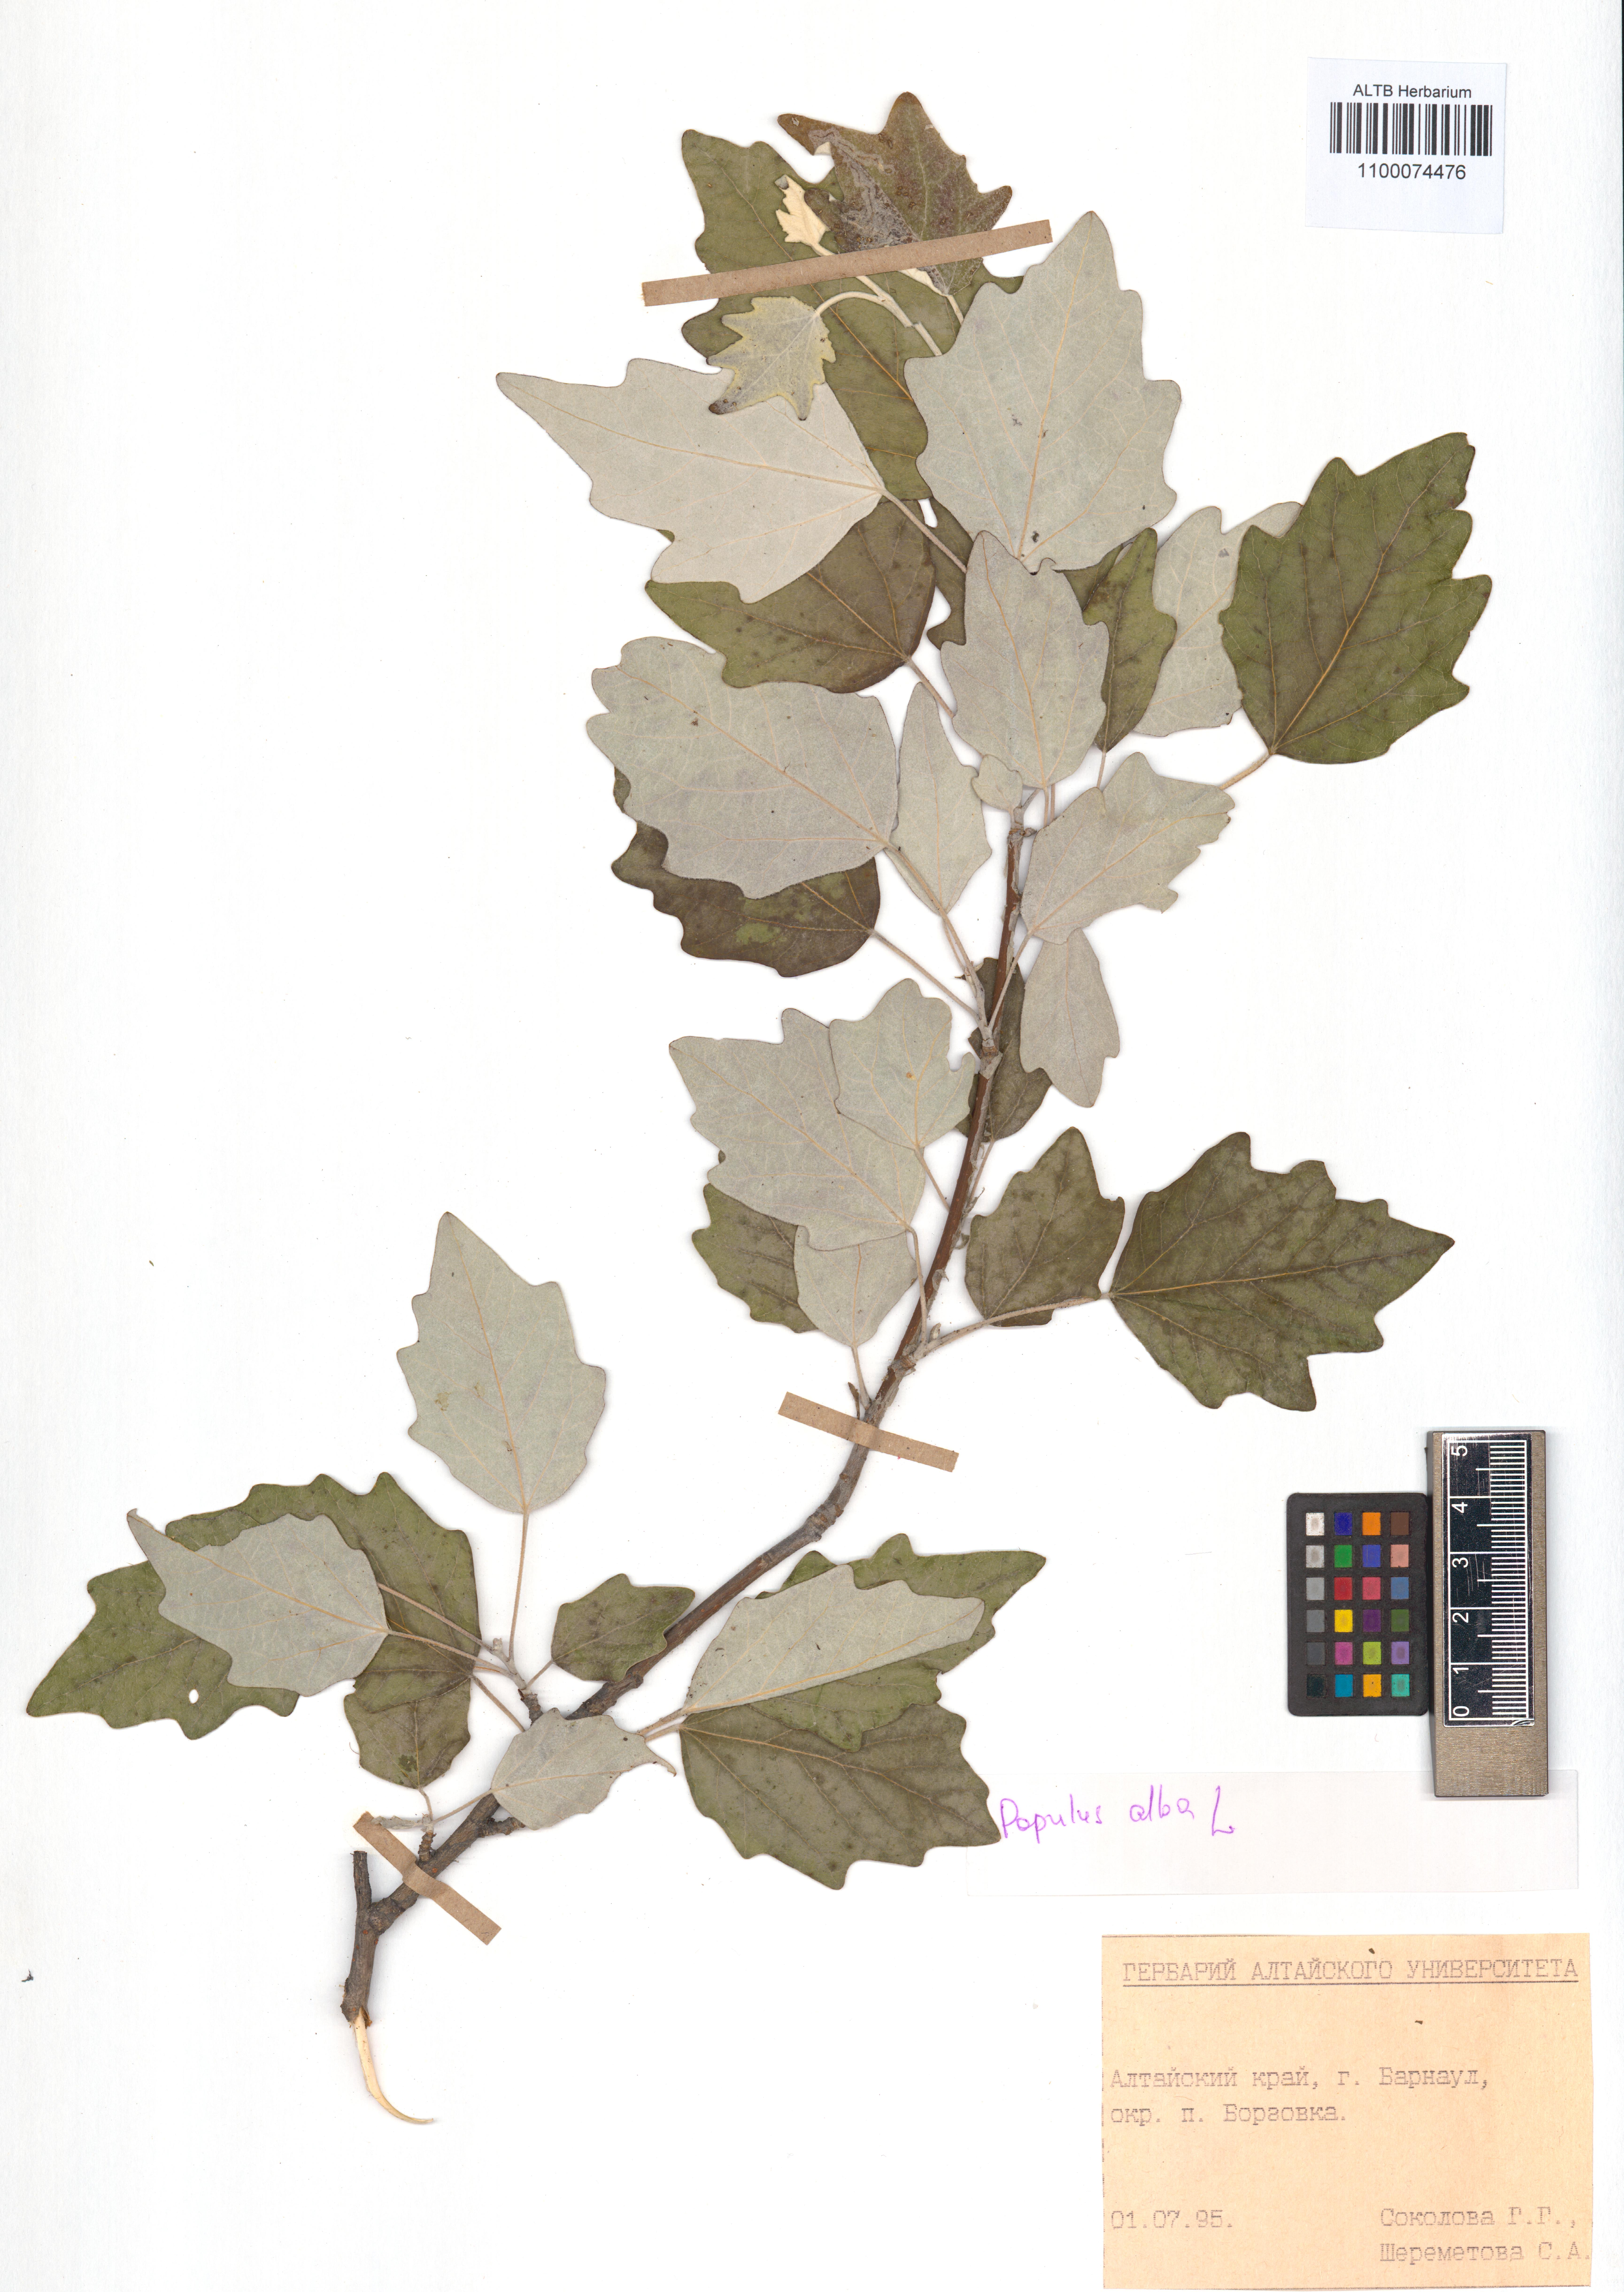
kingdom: Plantae
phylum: Tracheophyta
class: Magnoliopsida
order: Malpighiales
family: Salicaceae
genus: Populus
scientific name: Populus alba
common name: White poplar
